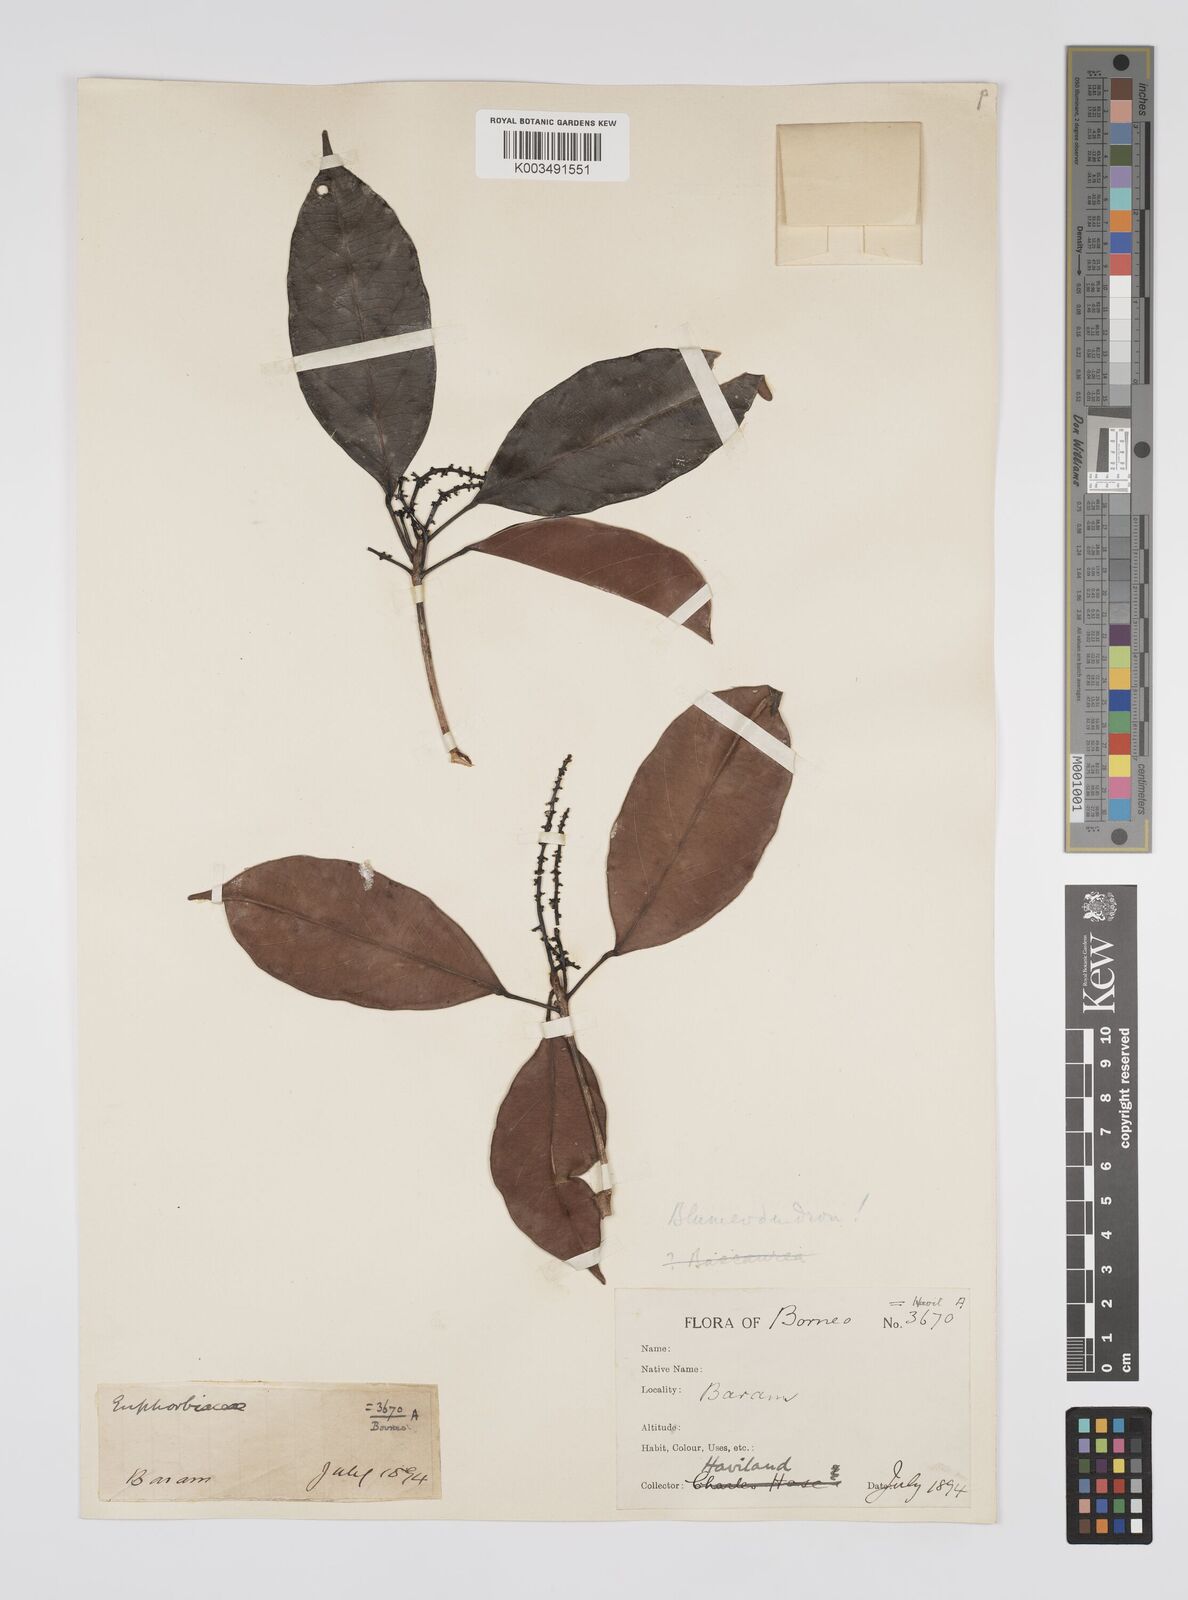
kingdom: Plantae
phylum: Tracheophyta
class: Magnoliopsida
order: Malpighiales
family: Euphorbiaceae
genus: Blumeodendron
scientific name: Blumeodendron
